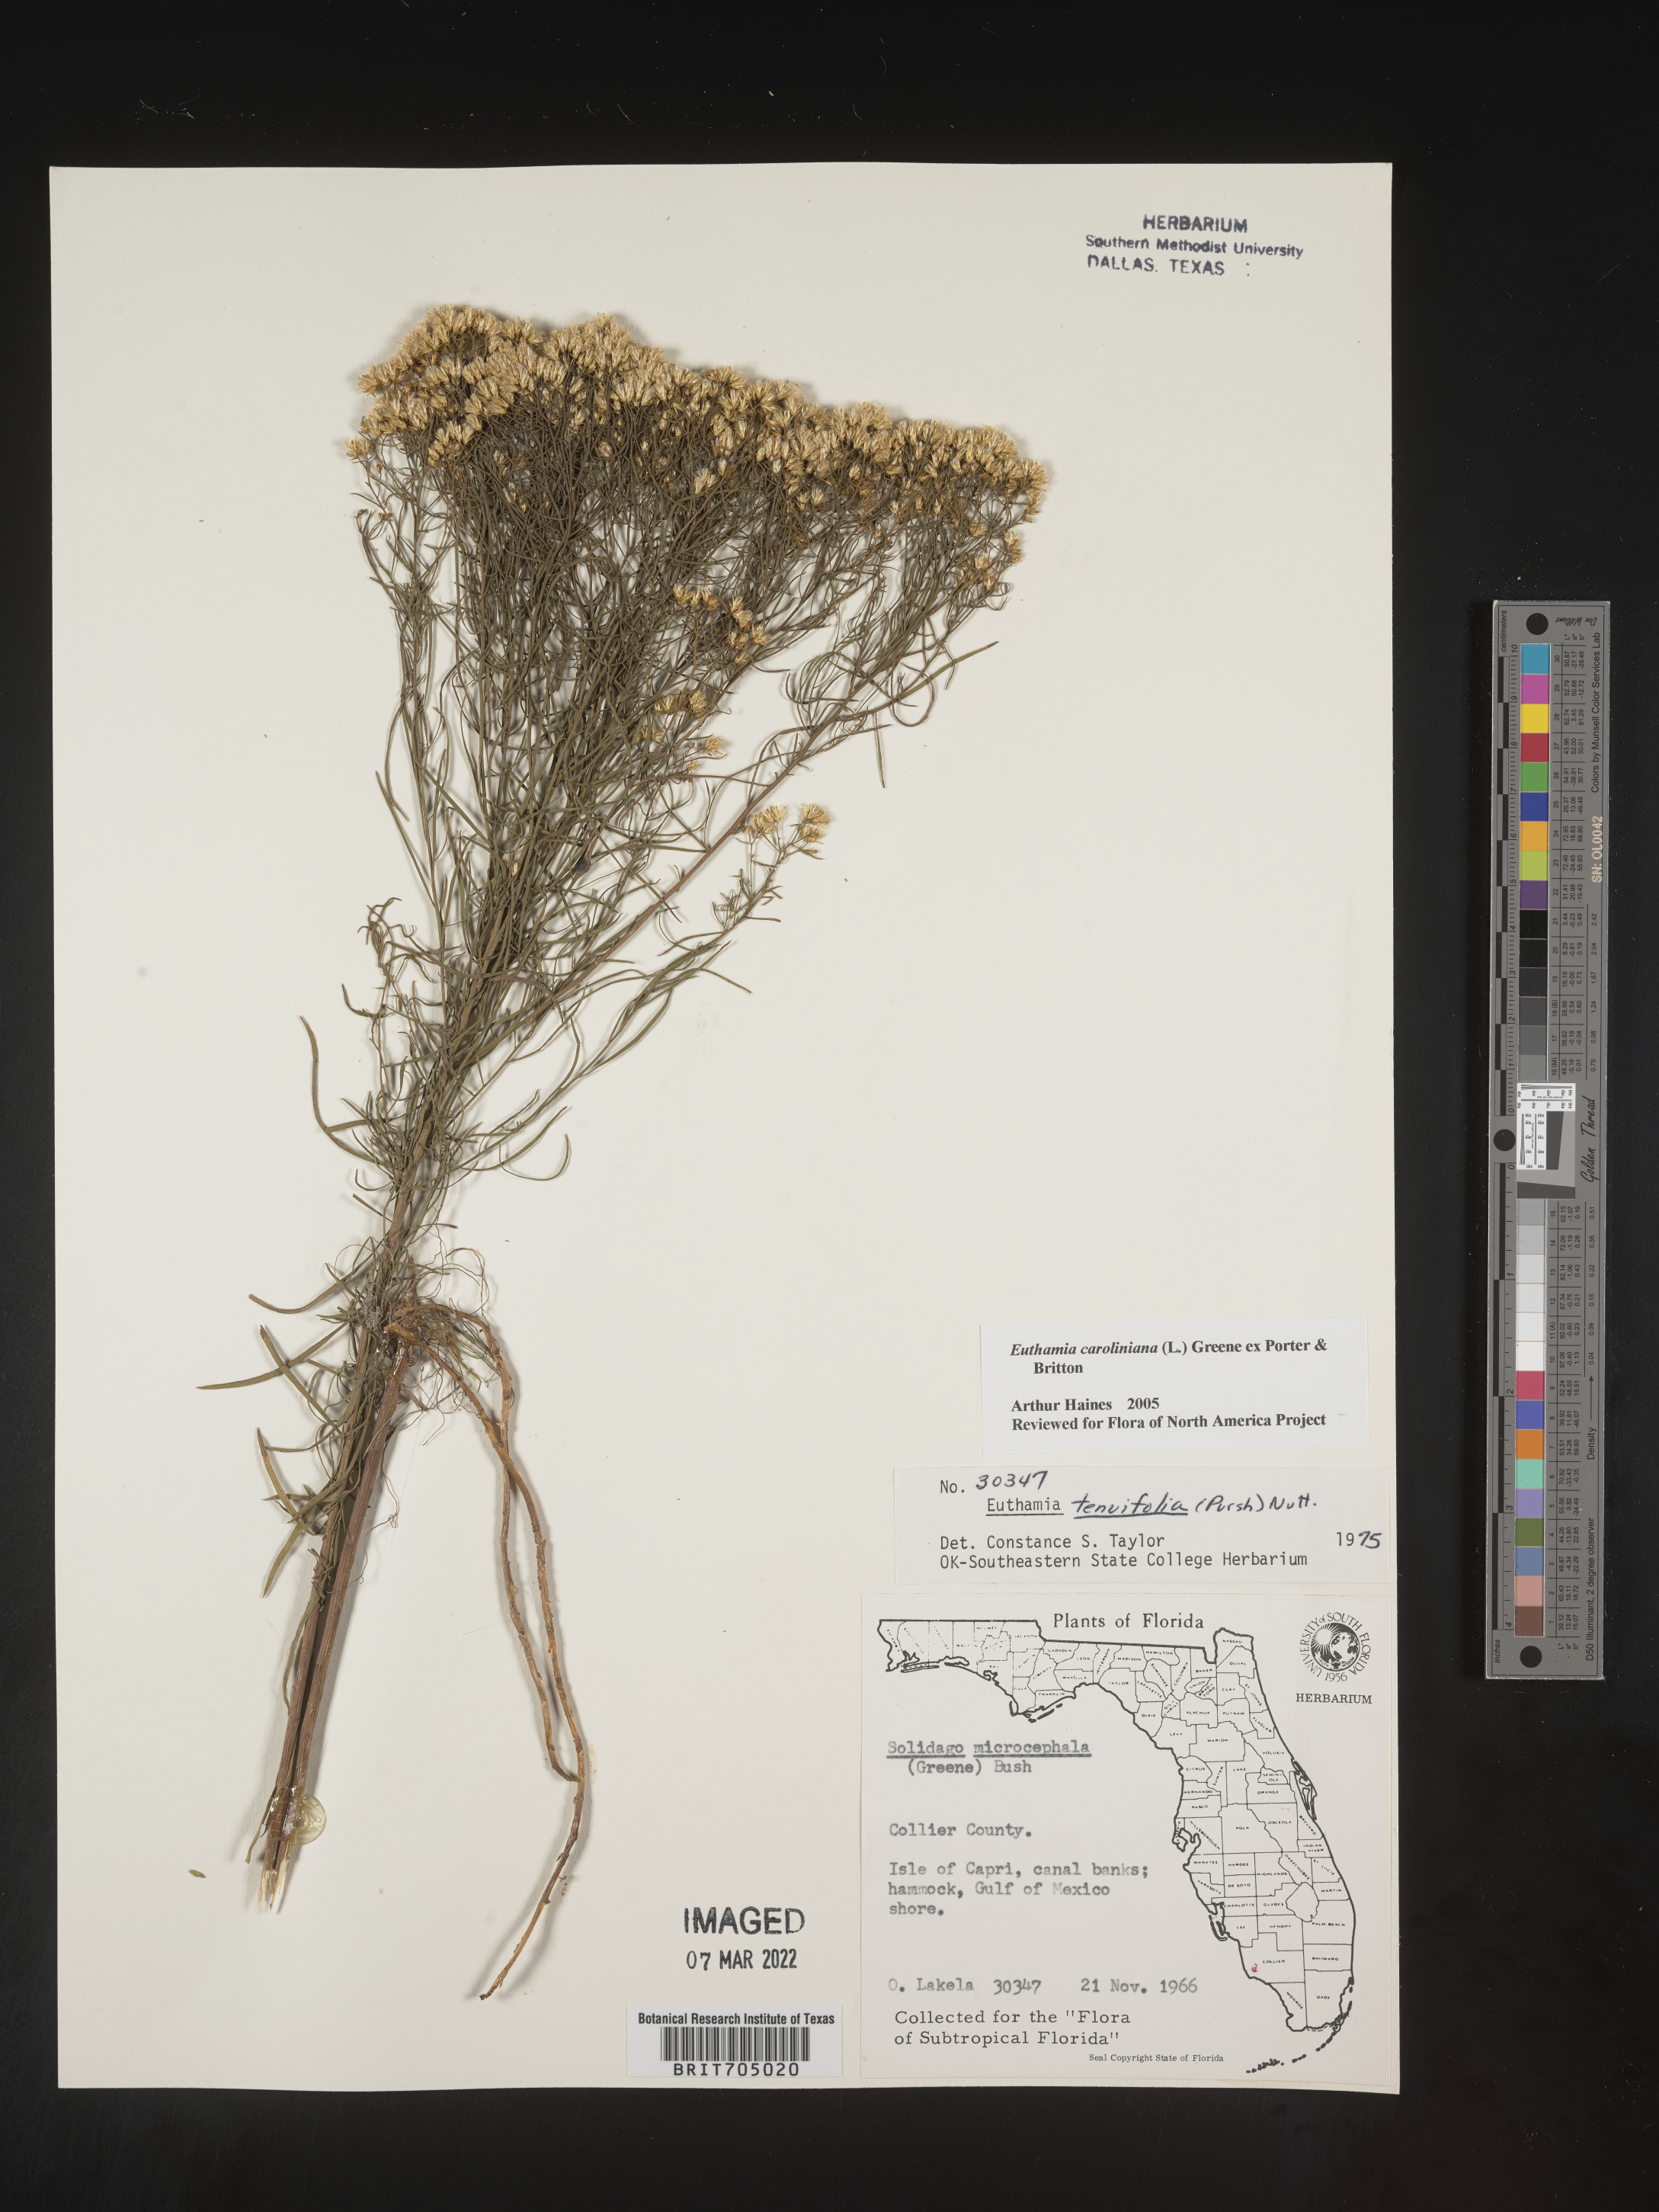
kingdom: Plantae
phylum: Tracheophyta
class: Magnoliopsida
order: Asterales
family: Asteraceae
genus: Euthamia
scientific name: Euthamia caroliniana
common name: Coastal plain goldentop
